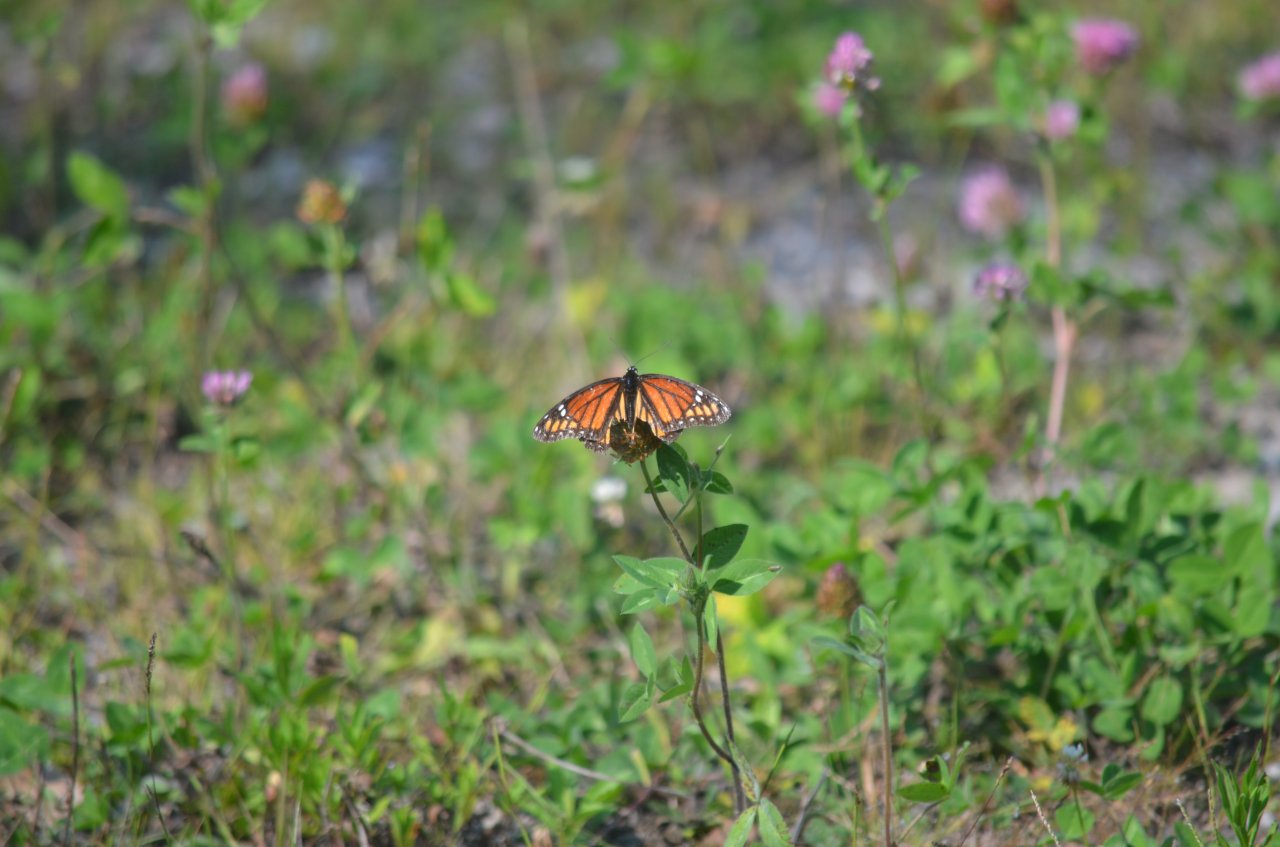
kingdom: Animalia
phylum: Arthropoda
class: Insecta
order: Lepidoptera
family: Nymphalidae
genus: Limenitis
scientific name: Limenitis archippus
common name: Viceroy
